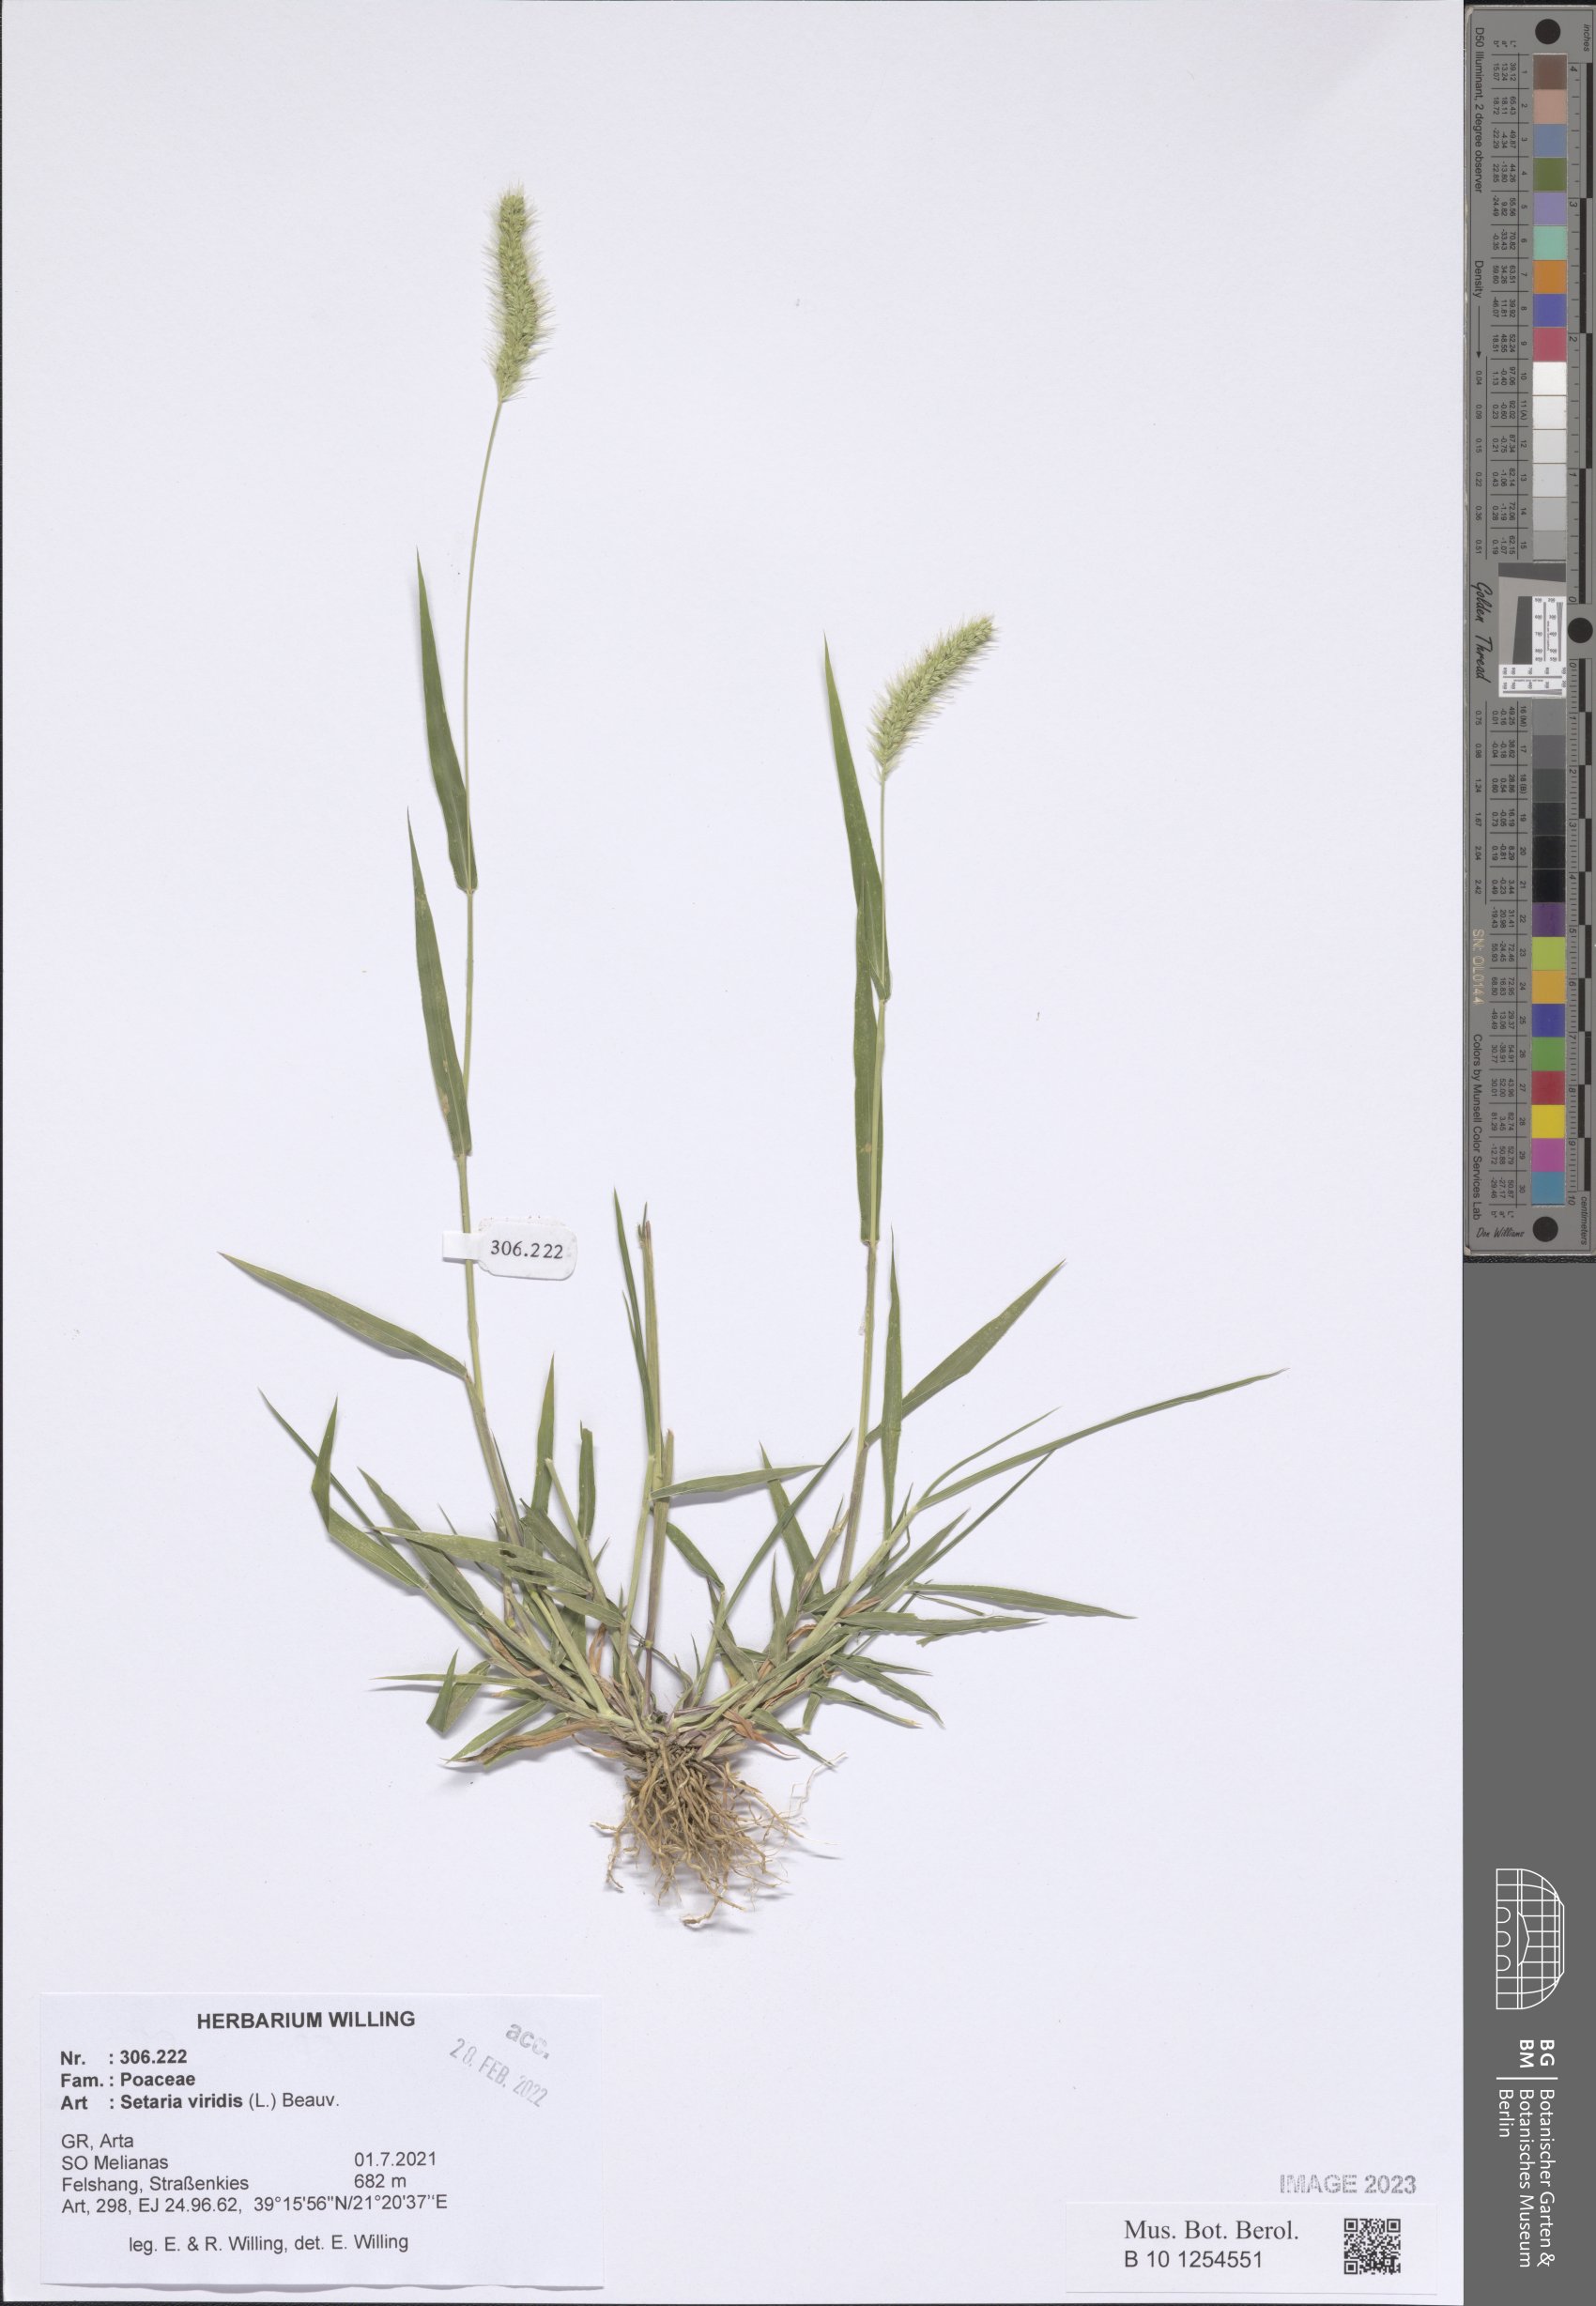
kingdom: Plantae
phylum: Tracheophyta
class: Liliopsida
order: Poales
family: Poaceae
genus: Setaria
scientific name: Setaria viridis
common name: Green bristlegrass
